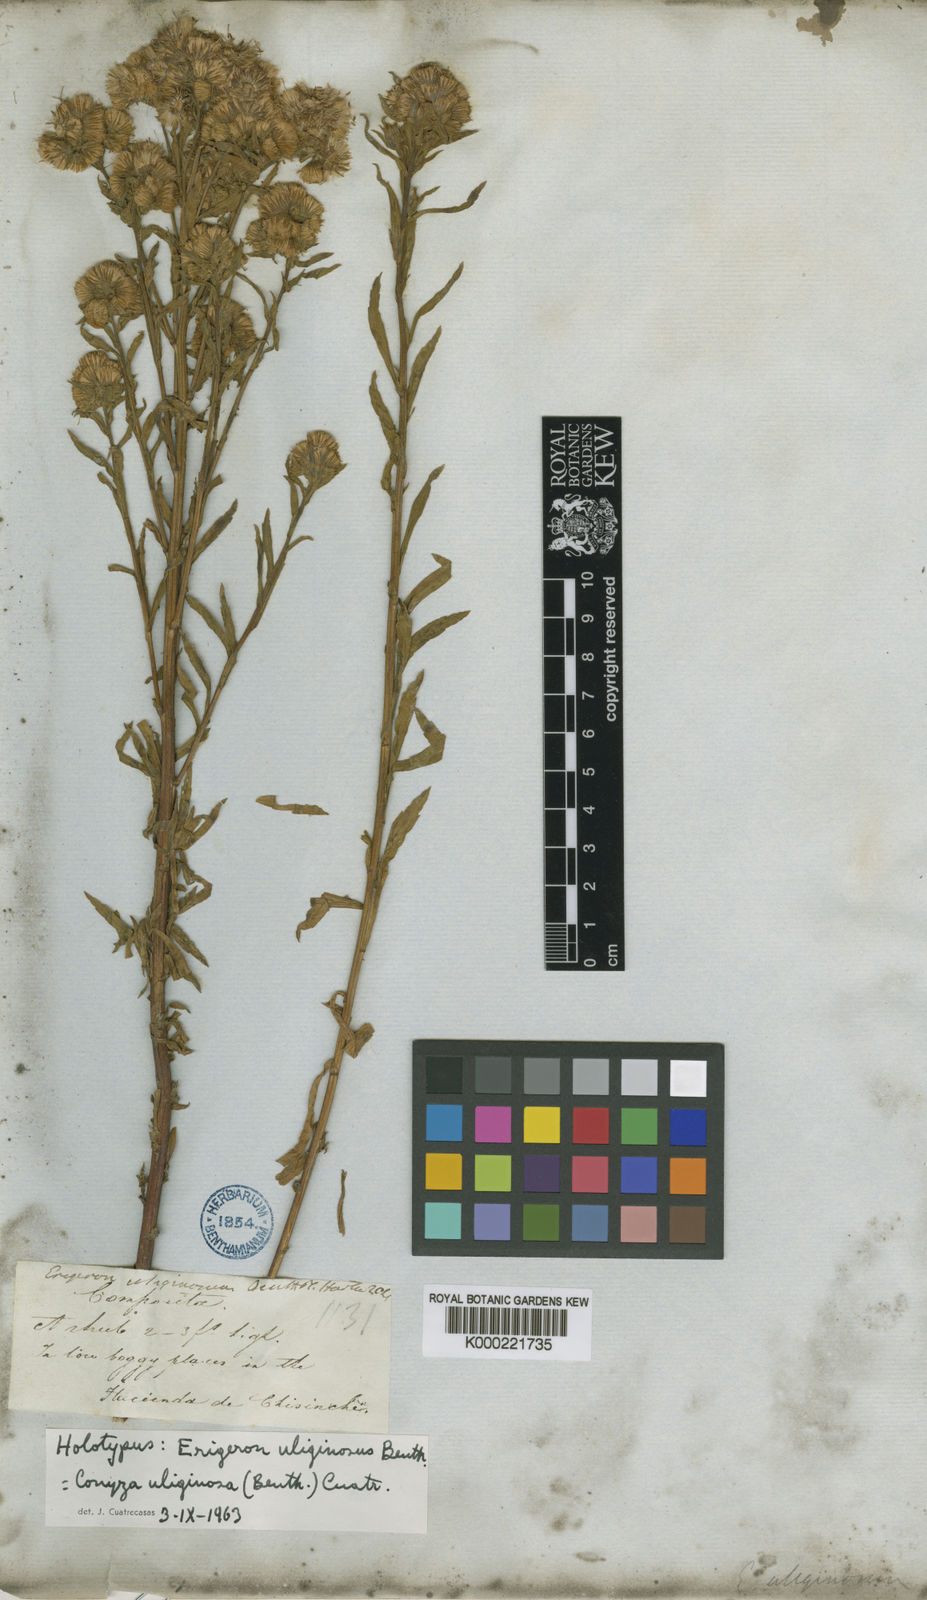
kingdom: Plantae
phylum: Tracheophyta
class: Magnoliopsida
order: Asterales
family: Asteraceae
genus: Erigeron
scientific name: Erigeron uliginosus
